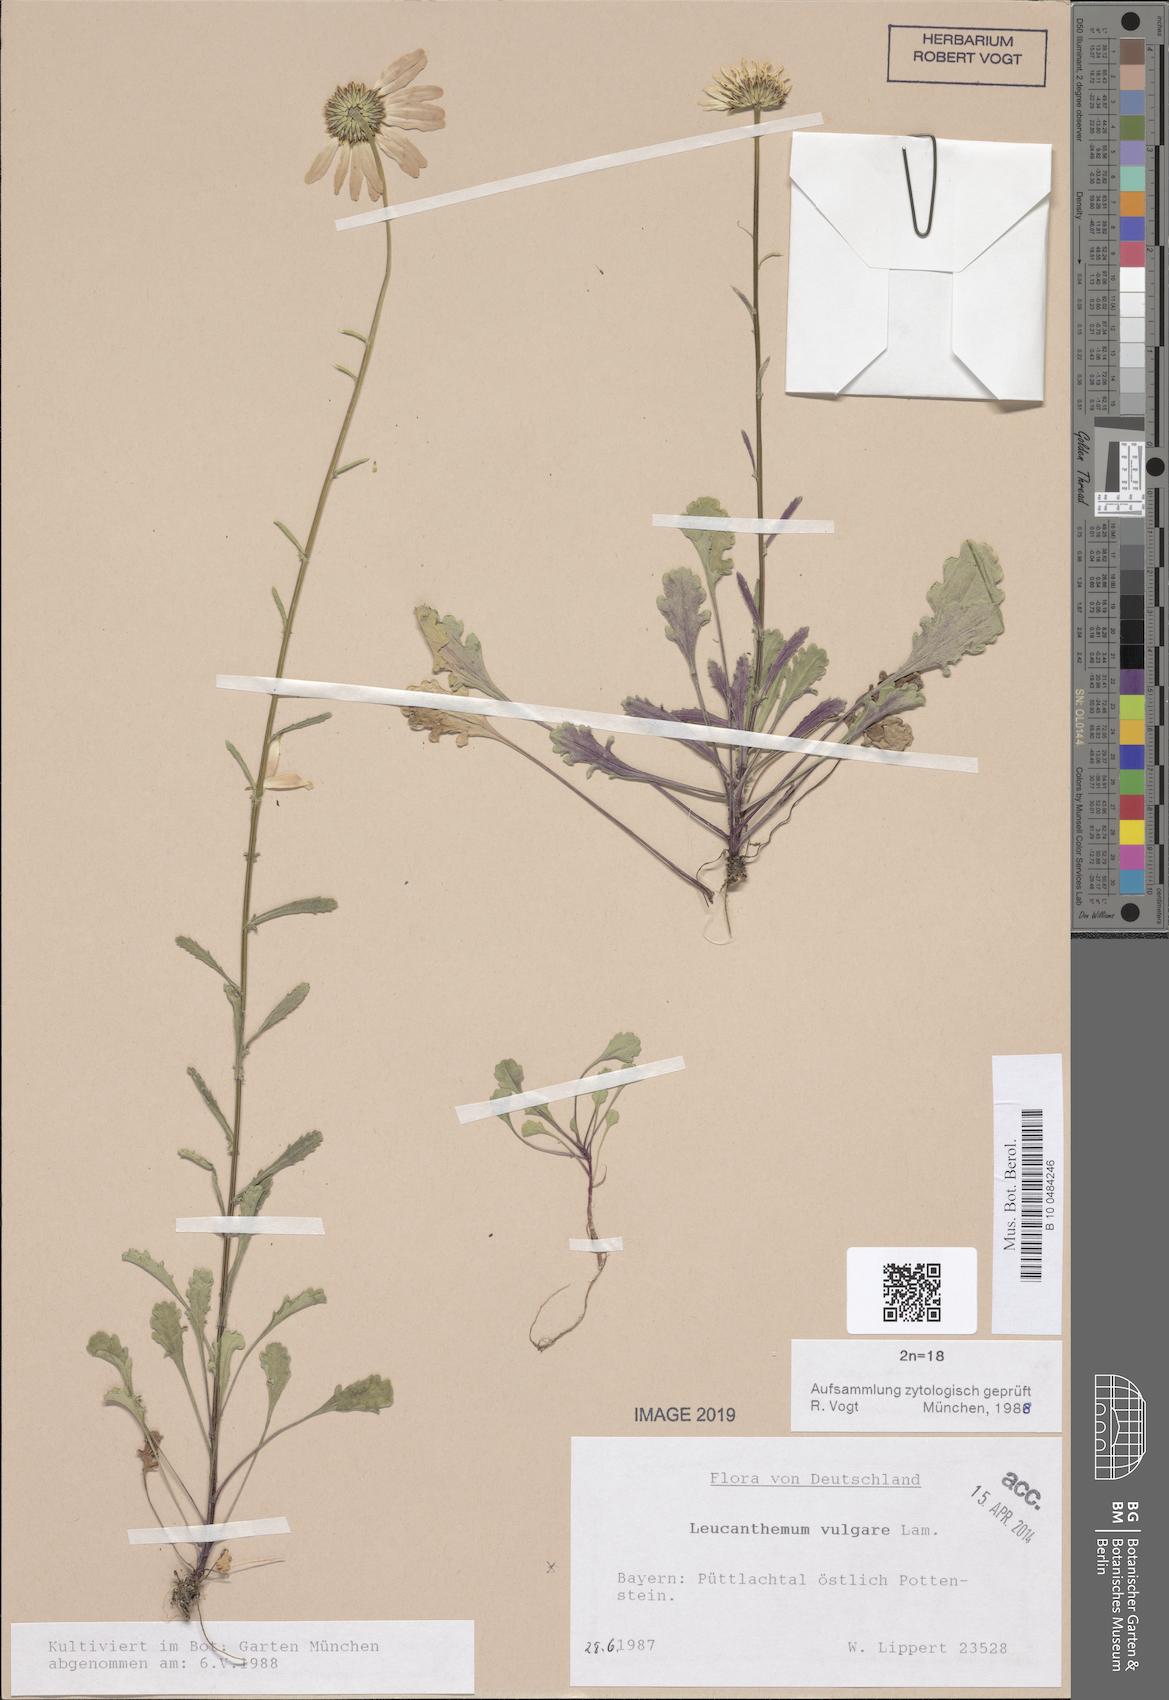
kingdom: Plantae
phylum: Tracheophyta
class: Magnoliopsida
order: Asterales
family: Asteraceae
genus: Leucanthemum
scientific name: Leucanthemum vulgare
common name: Oxeye daisy
